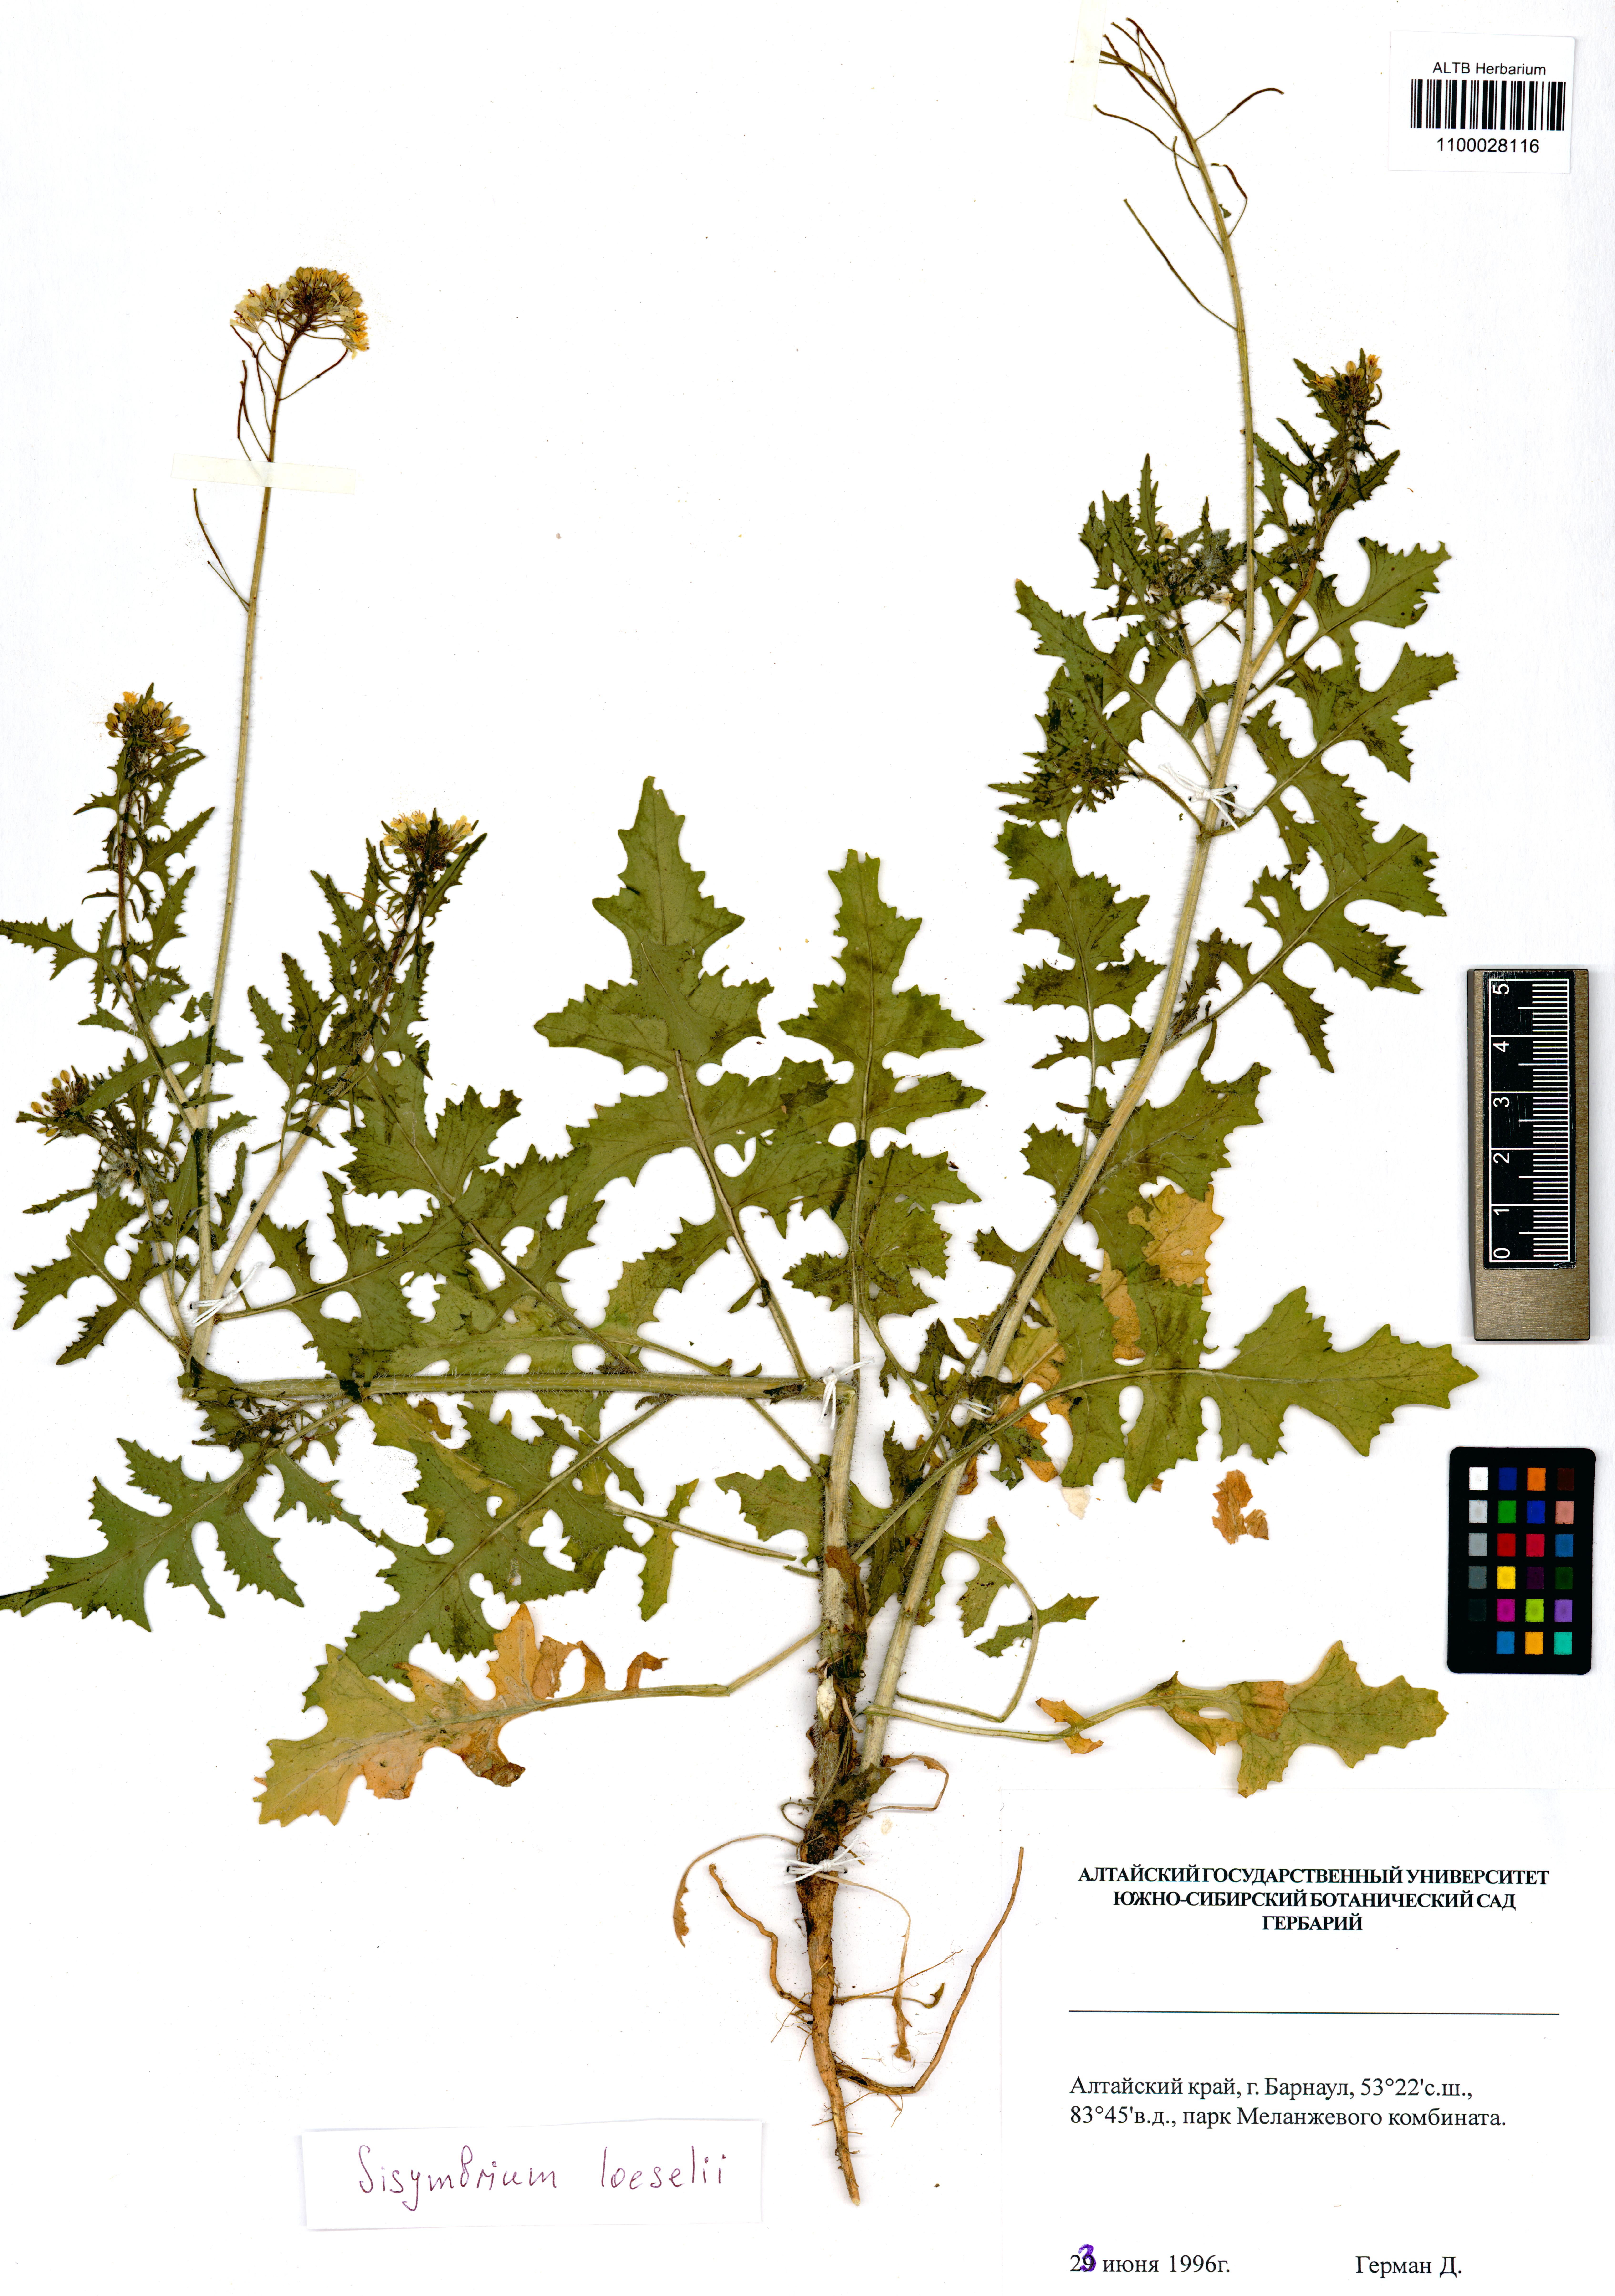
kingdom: Plantae
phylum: Tracheophyta
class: Magnoliopsida
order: Brassicales
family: Brassicaceae
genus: Sisymbrium
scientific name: Sisymbrium loeselii
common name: False london-rocket
